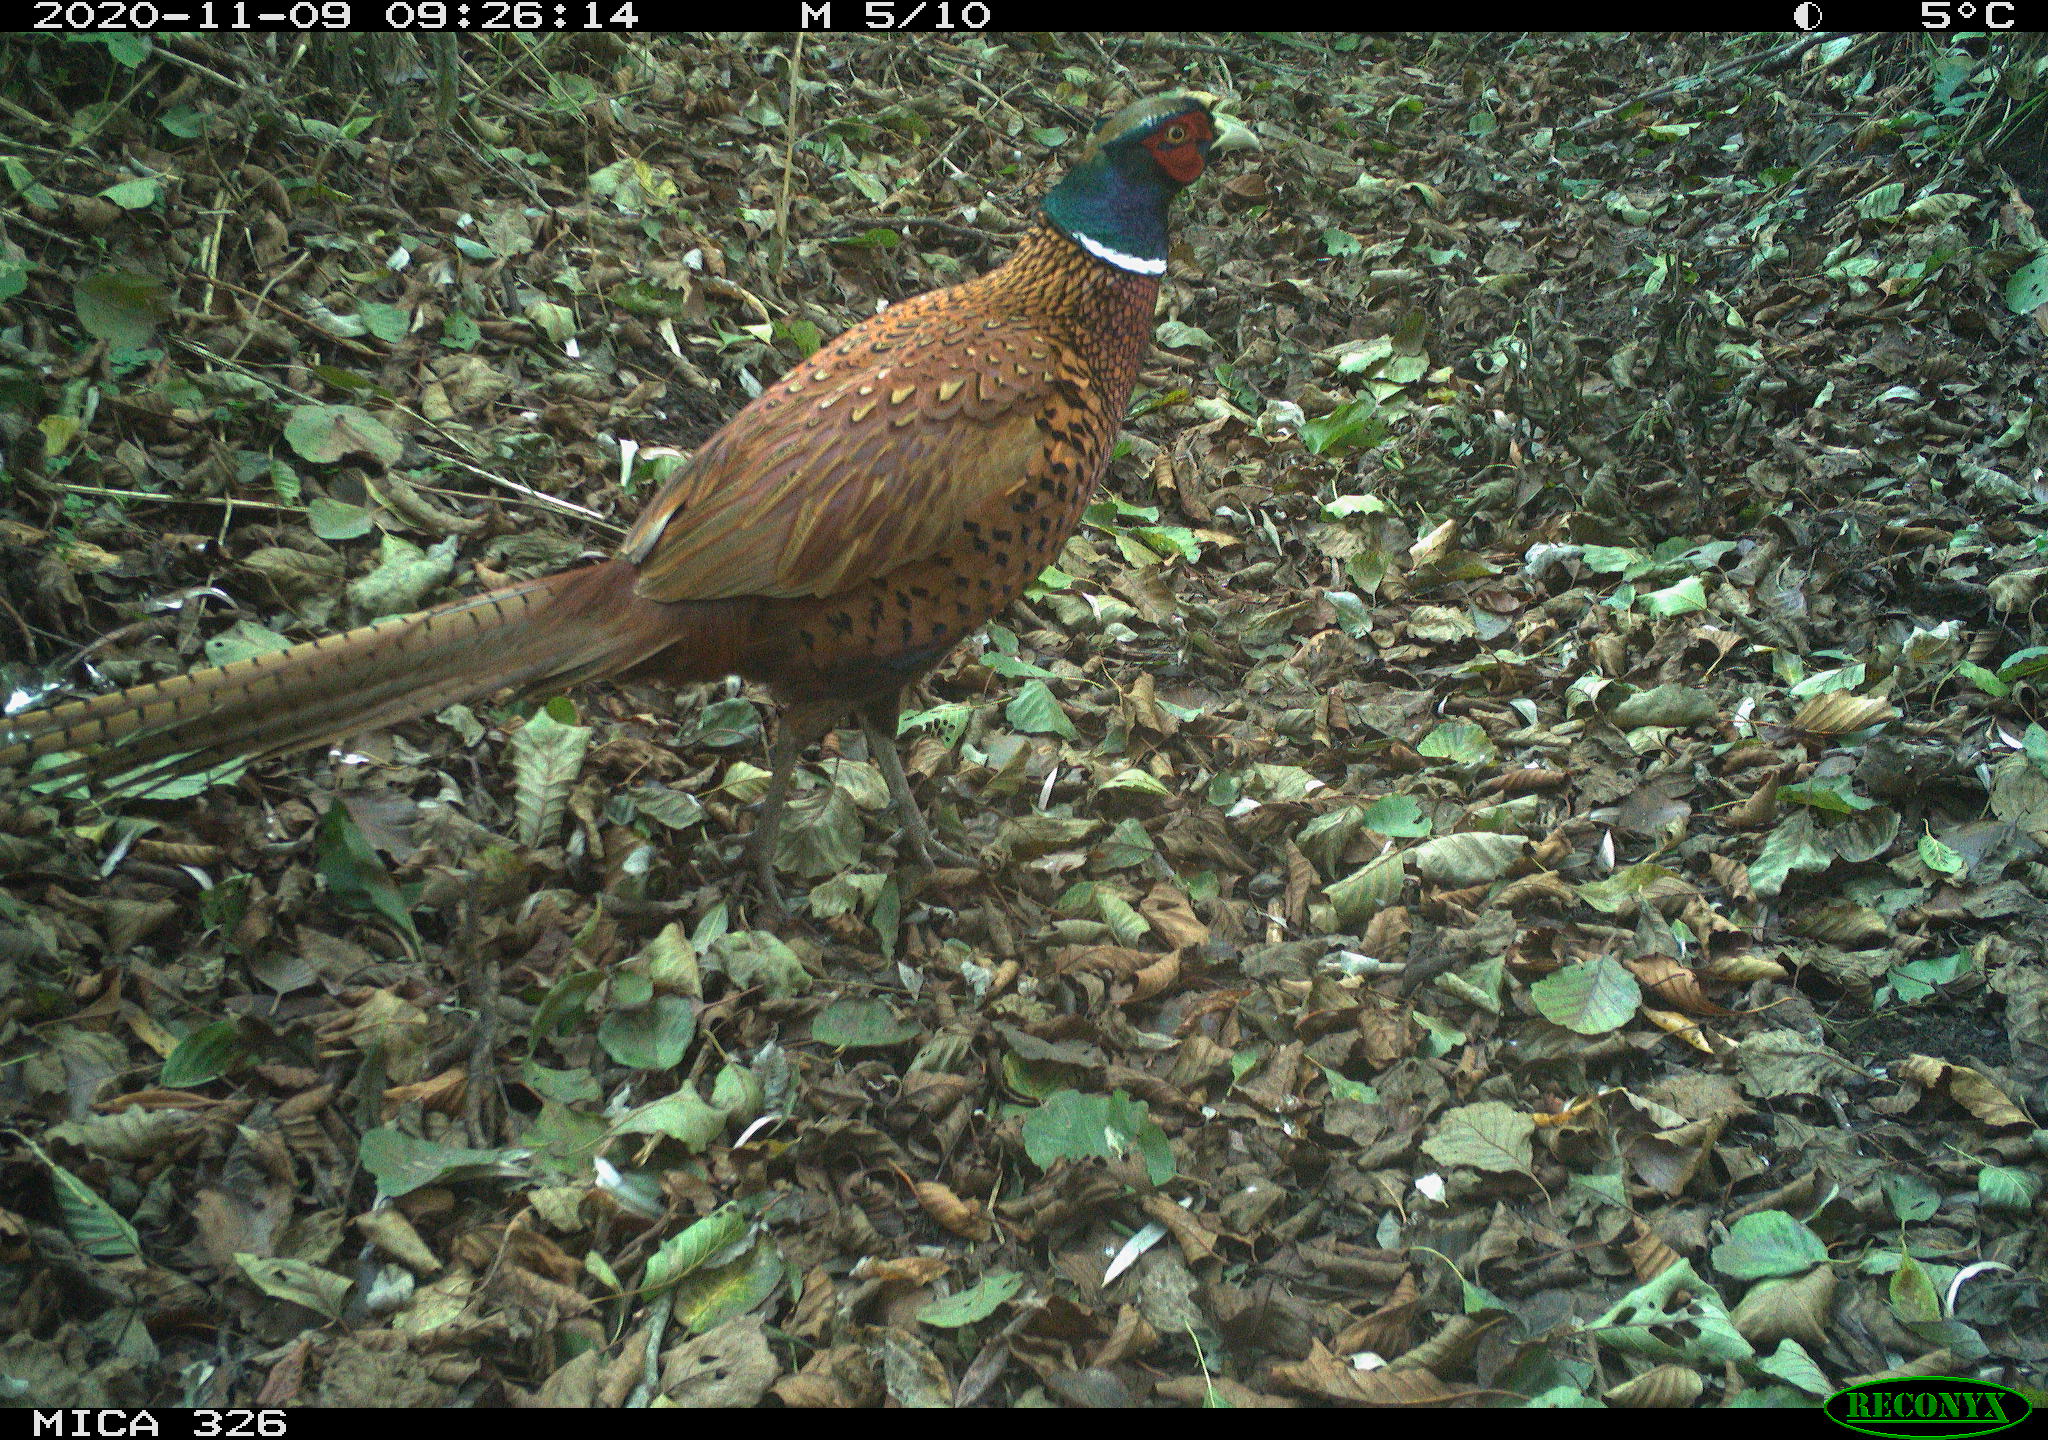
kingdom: Animalia
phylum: Chordata
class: Aves
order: Galliformes
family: Phasianidae
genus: Phasianus
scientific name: Phasianus colchicus
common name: Common pheasant
